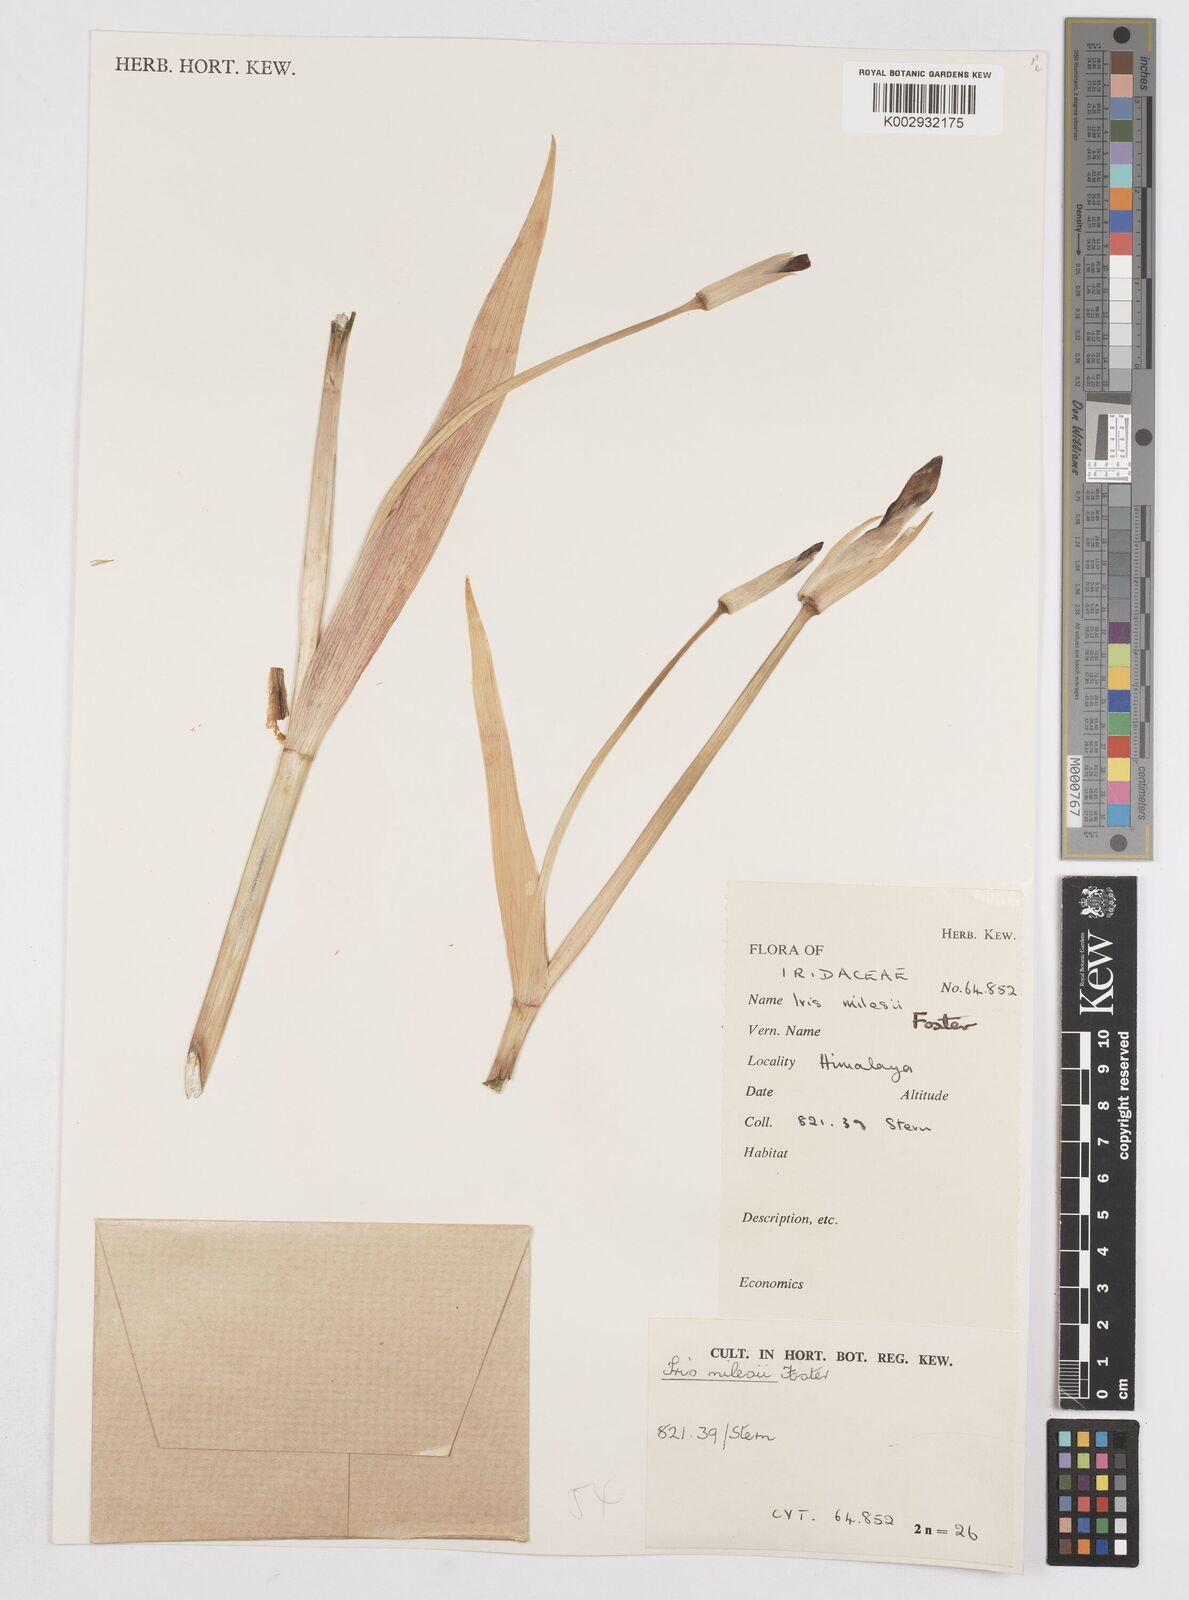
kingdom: Plantae
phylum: Tracheophyta
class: Liliopsida
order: Asparagales
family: Iridaceae
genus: Iris
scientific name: Iris milesii
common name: Red-flower iris
